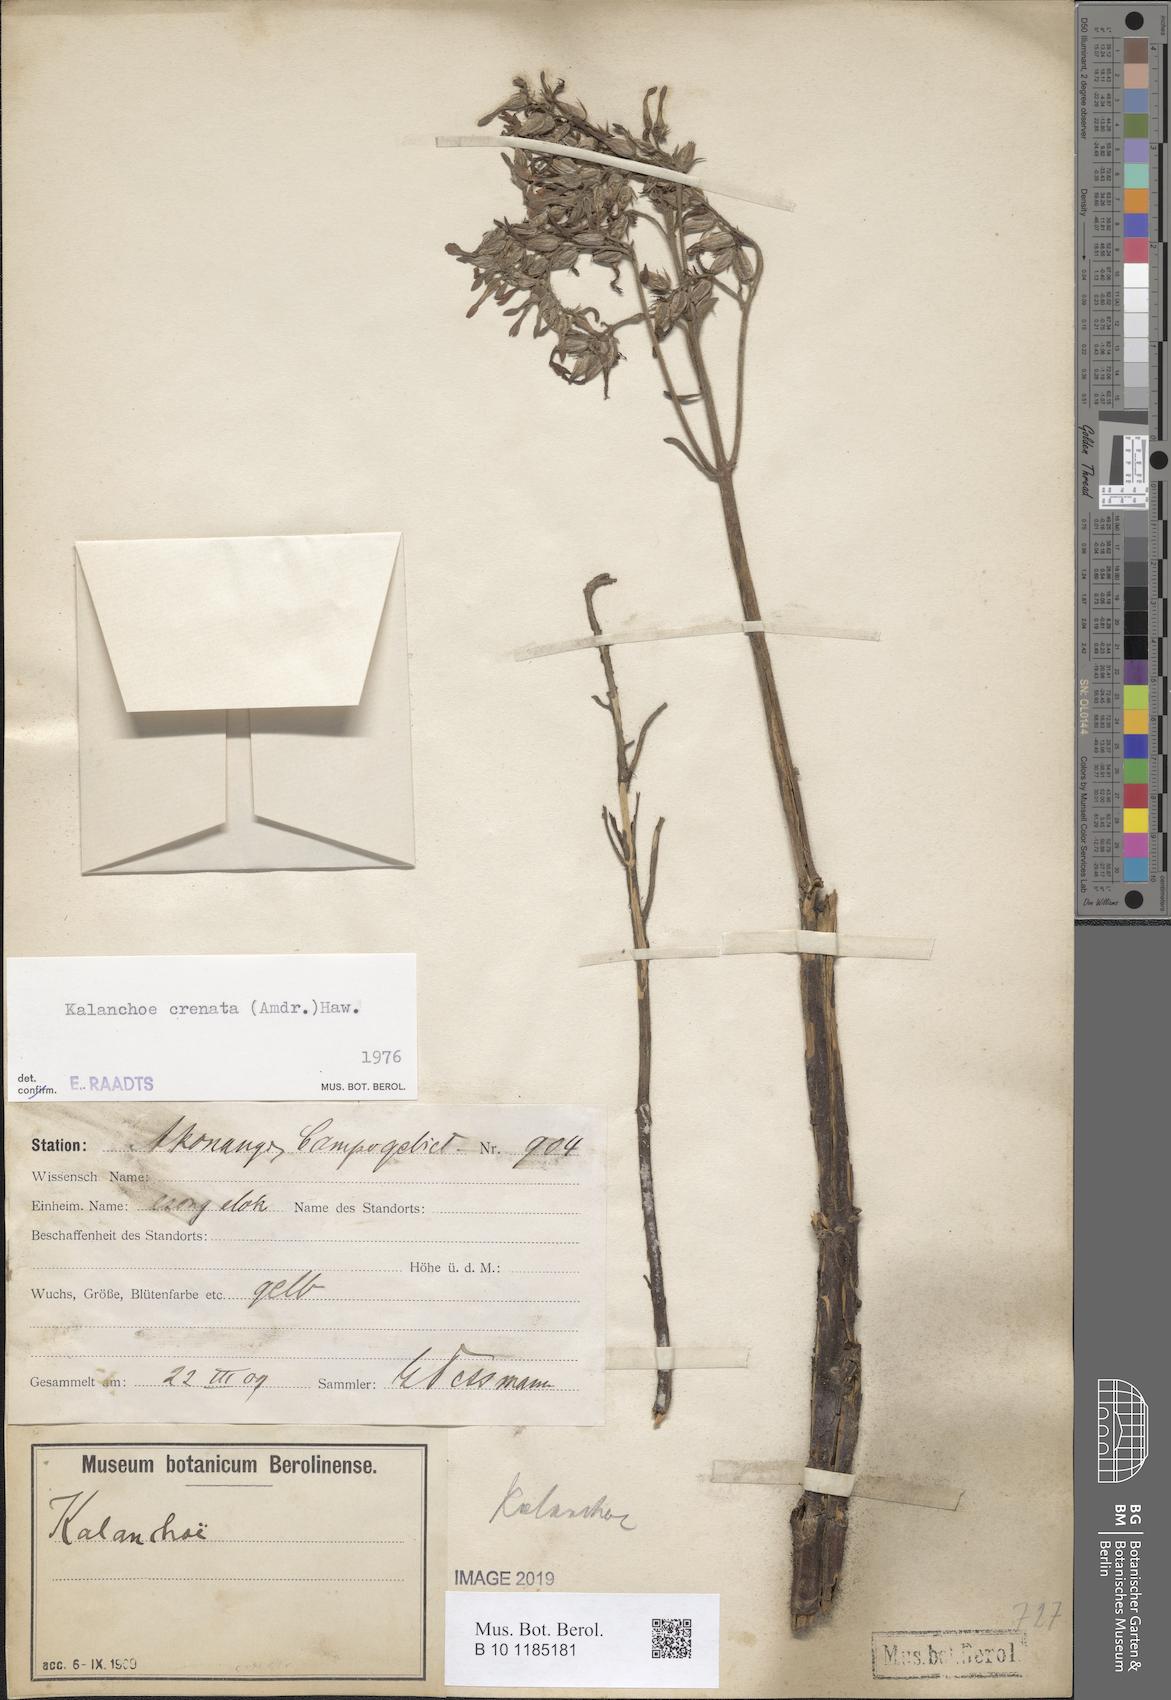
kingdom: Plantae
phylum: Tracheophyta
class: Magnoliopsida
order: Saxifragales
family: Crassulaceae
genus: Kalanchoe
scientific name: Kalanchoe crenata
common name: Neverdie
